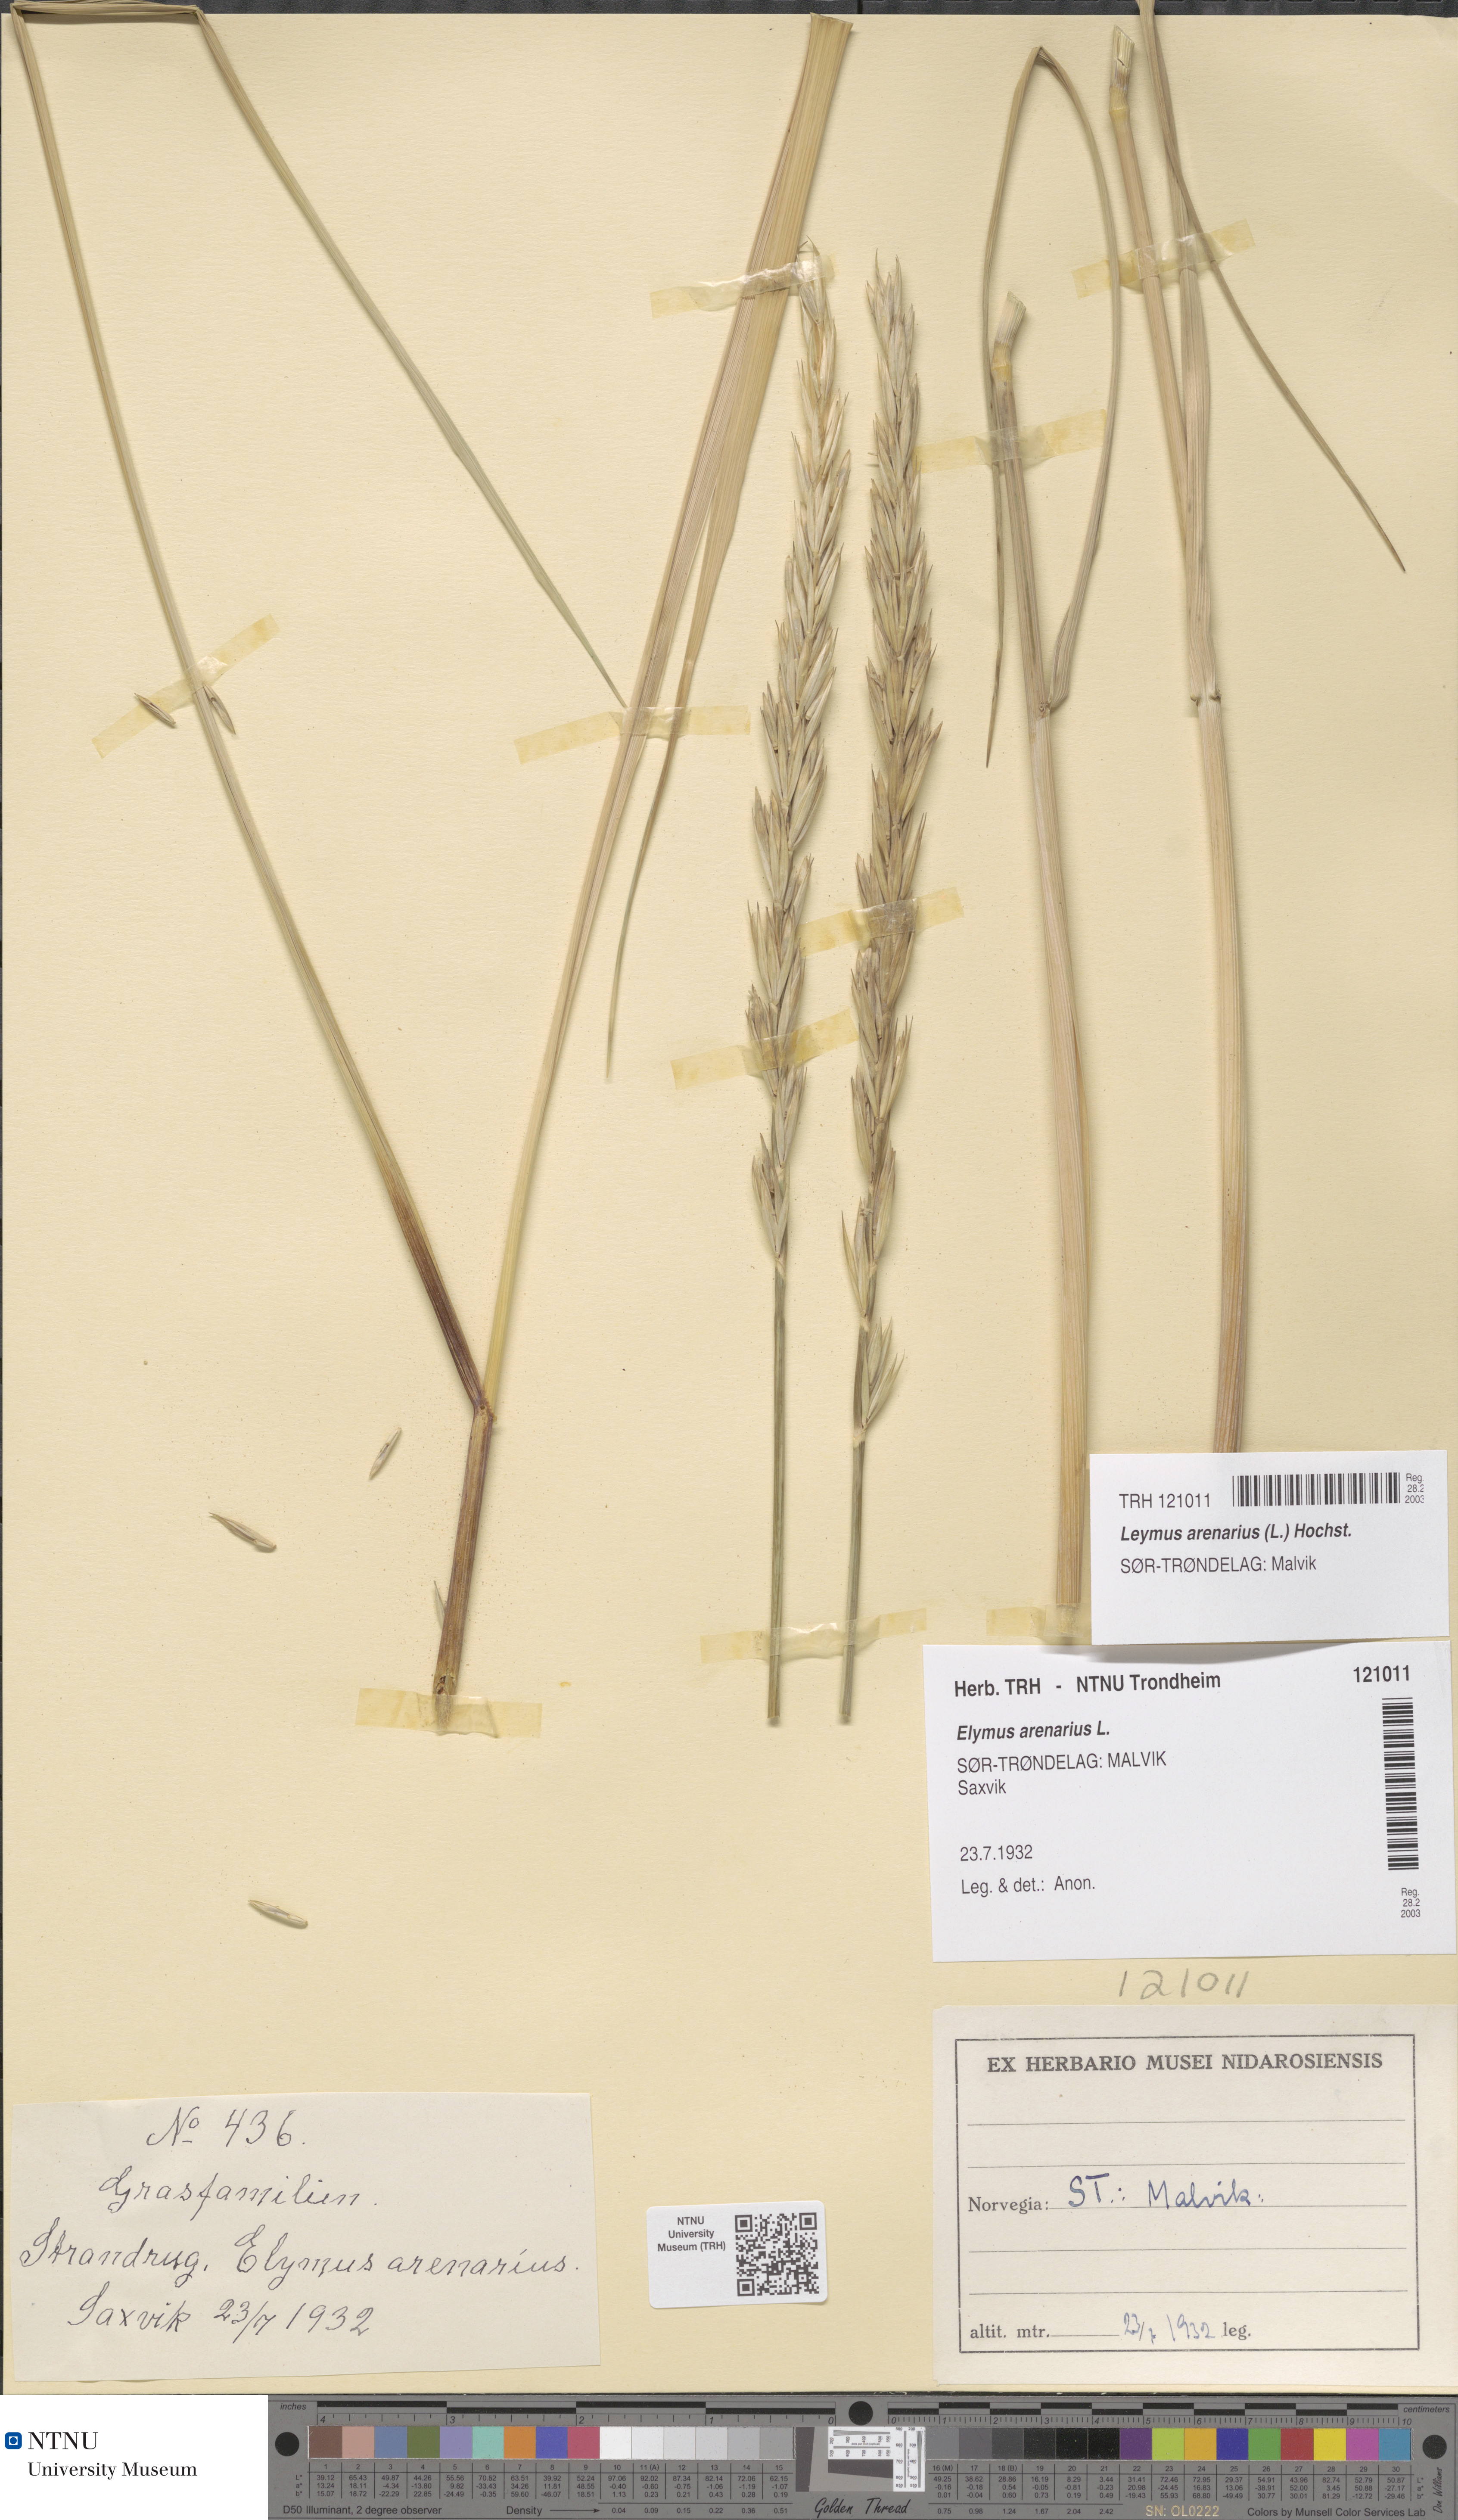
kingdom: Plantae
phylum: Tracheophyta
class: Liliopsida
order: Poales
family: Poaceae
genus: Leymus
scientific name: Leymus arenarius
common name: Lyme-grass
